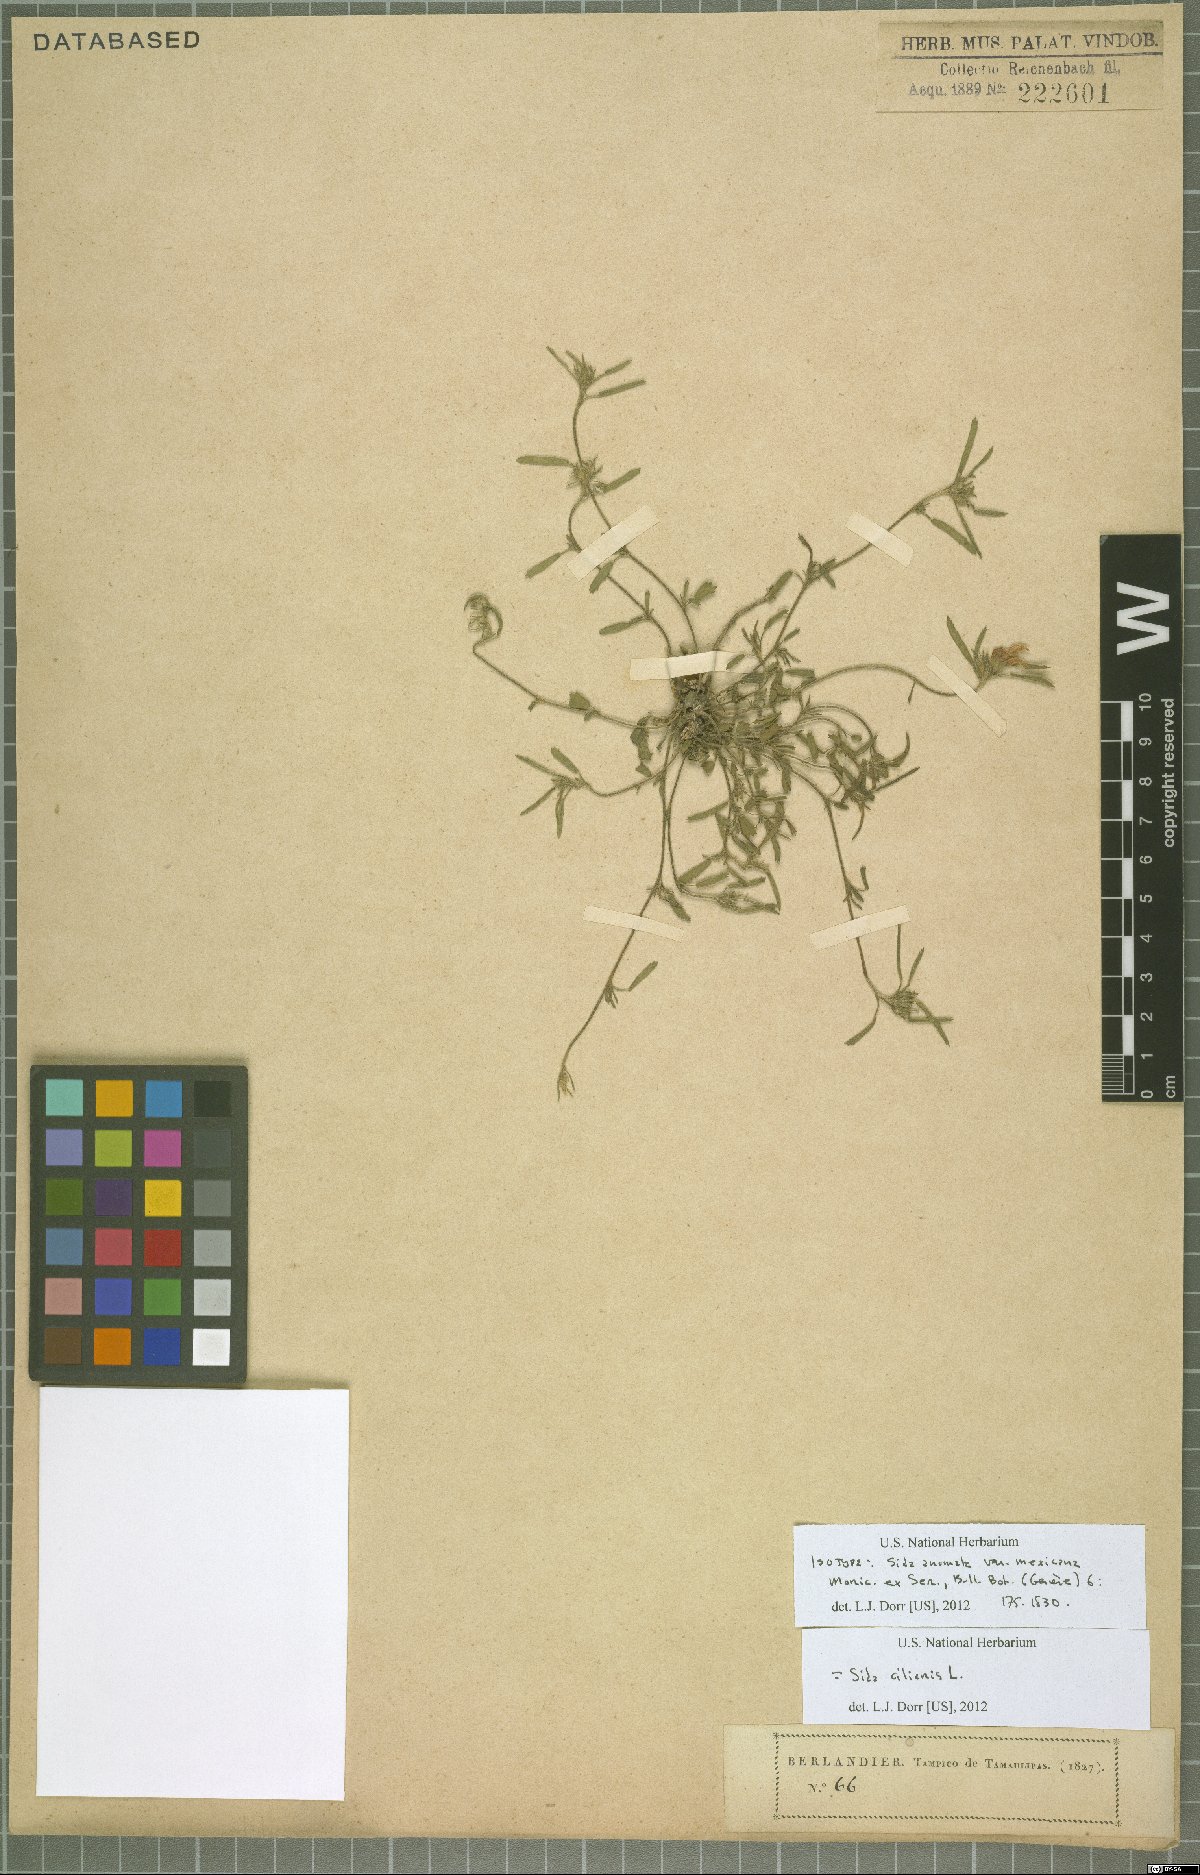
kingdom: Plantae
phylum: Tracheophyta
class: Magnoliopsida
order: Malvales
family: Malvaceae
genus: Sida
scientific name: Sida ciliaris
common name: Bracted fanpetals
